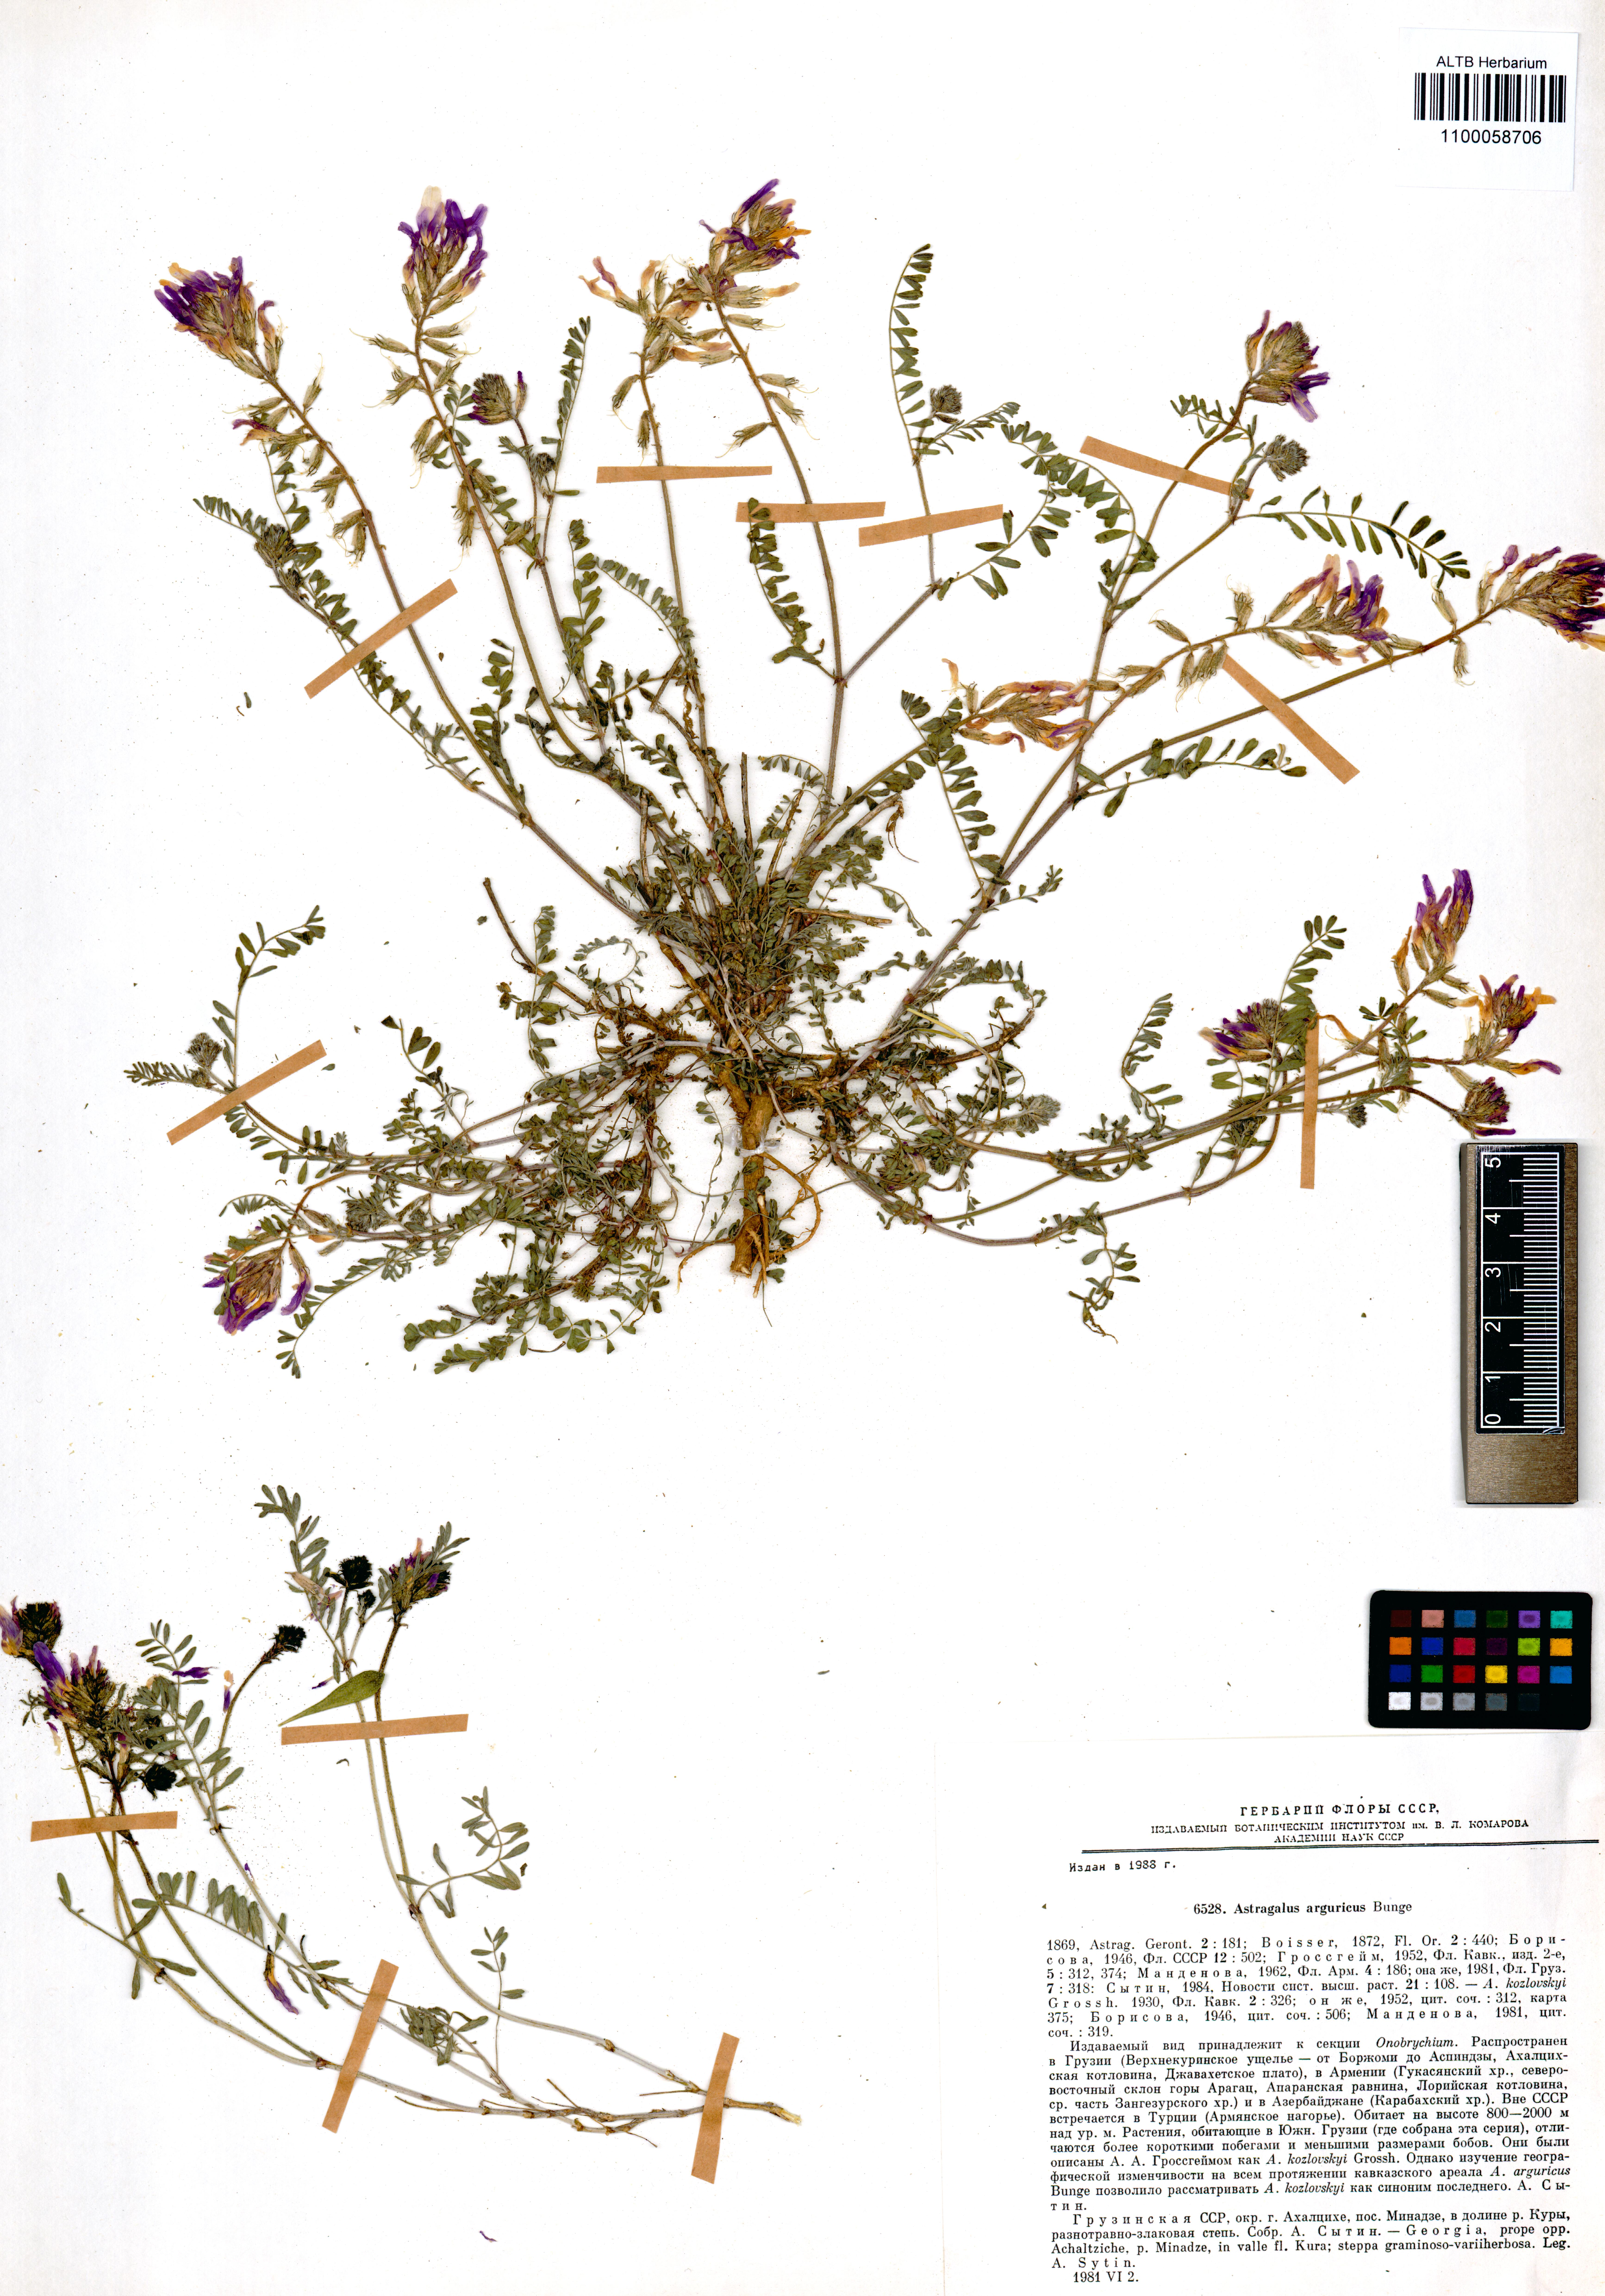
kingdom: Plantae
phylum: Tracheophyta
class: Magnoliopsida
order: Fabales
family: Fabaceae
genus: Astragalus
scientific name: Astragalus arguricus
